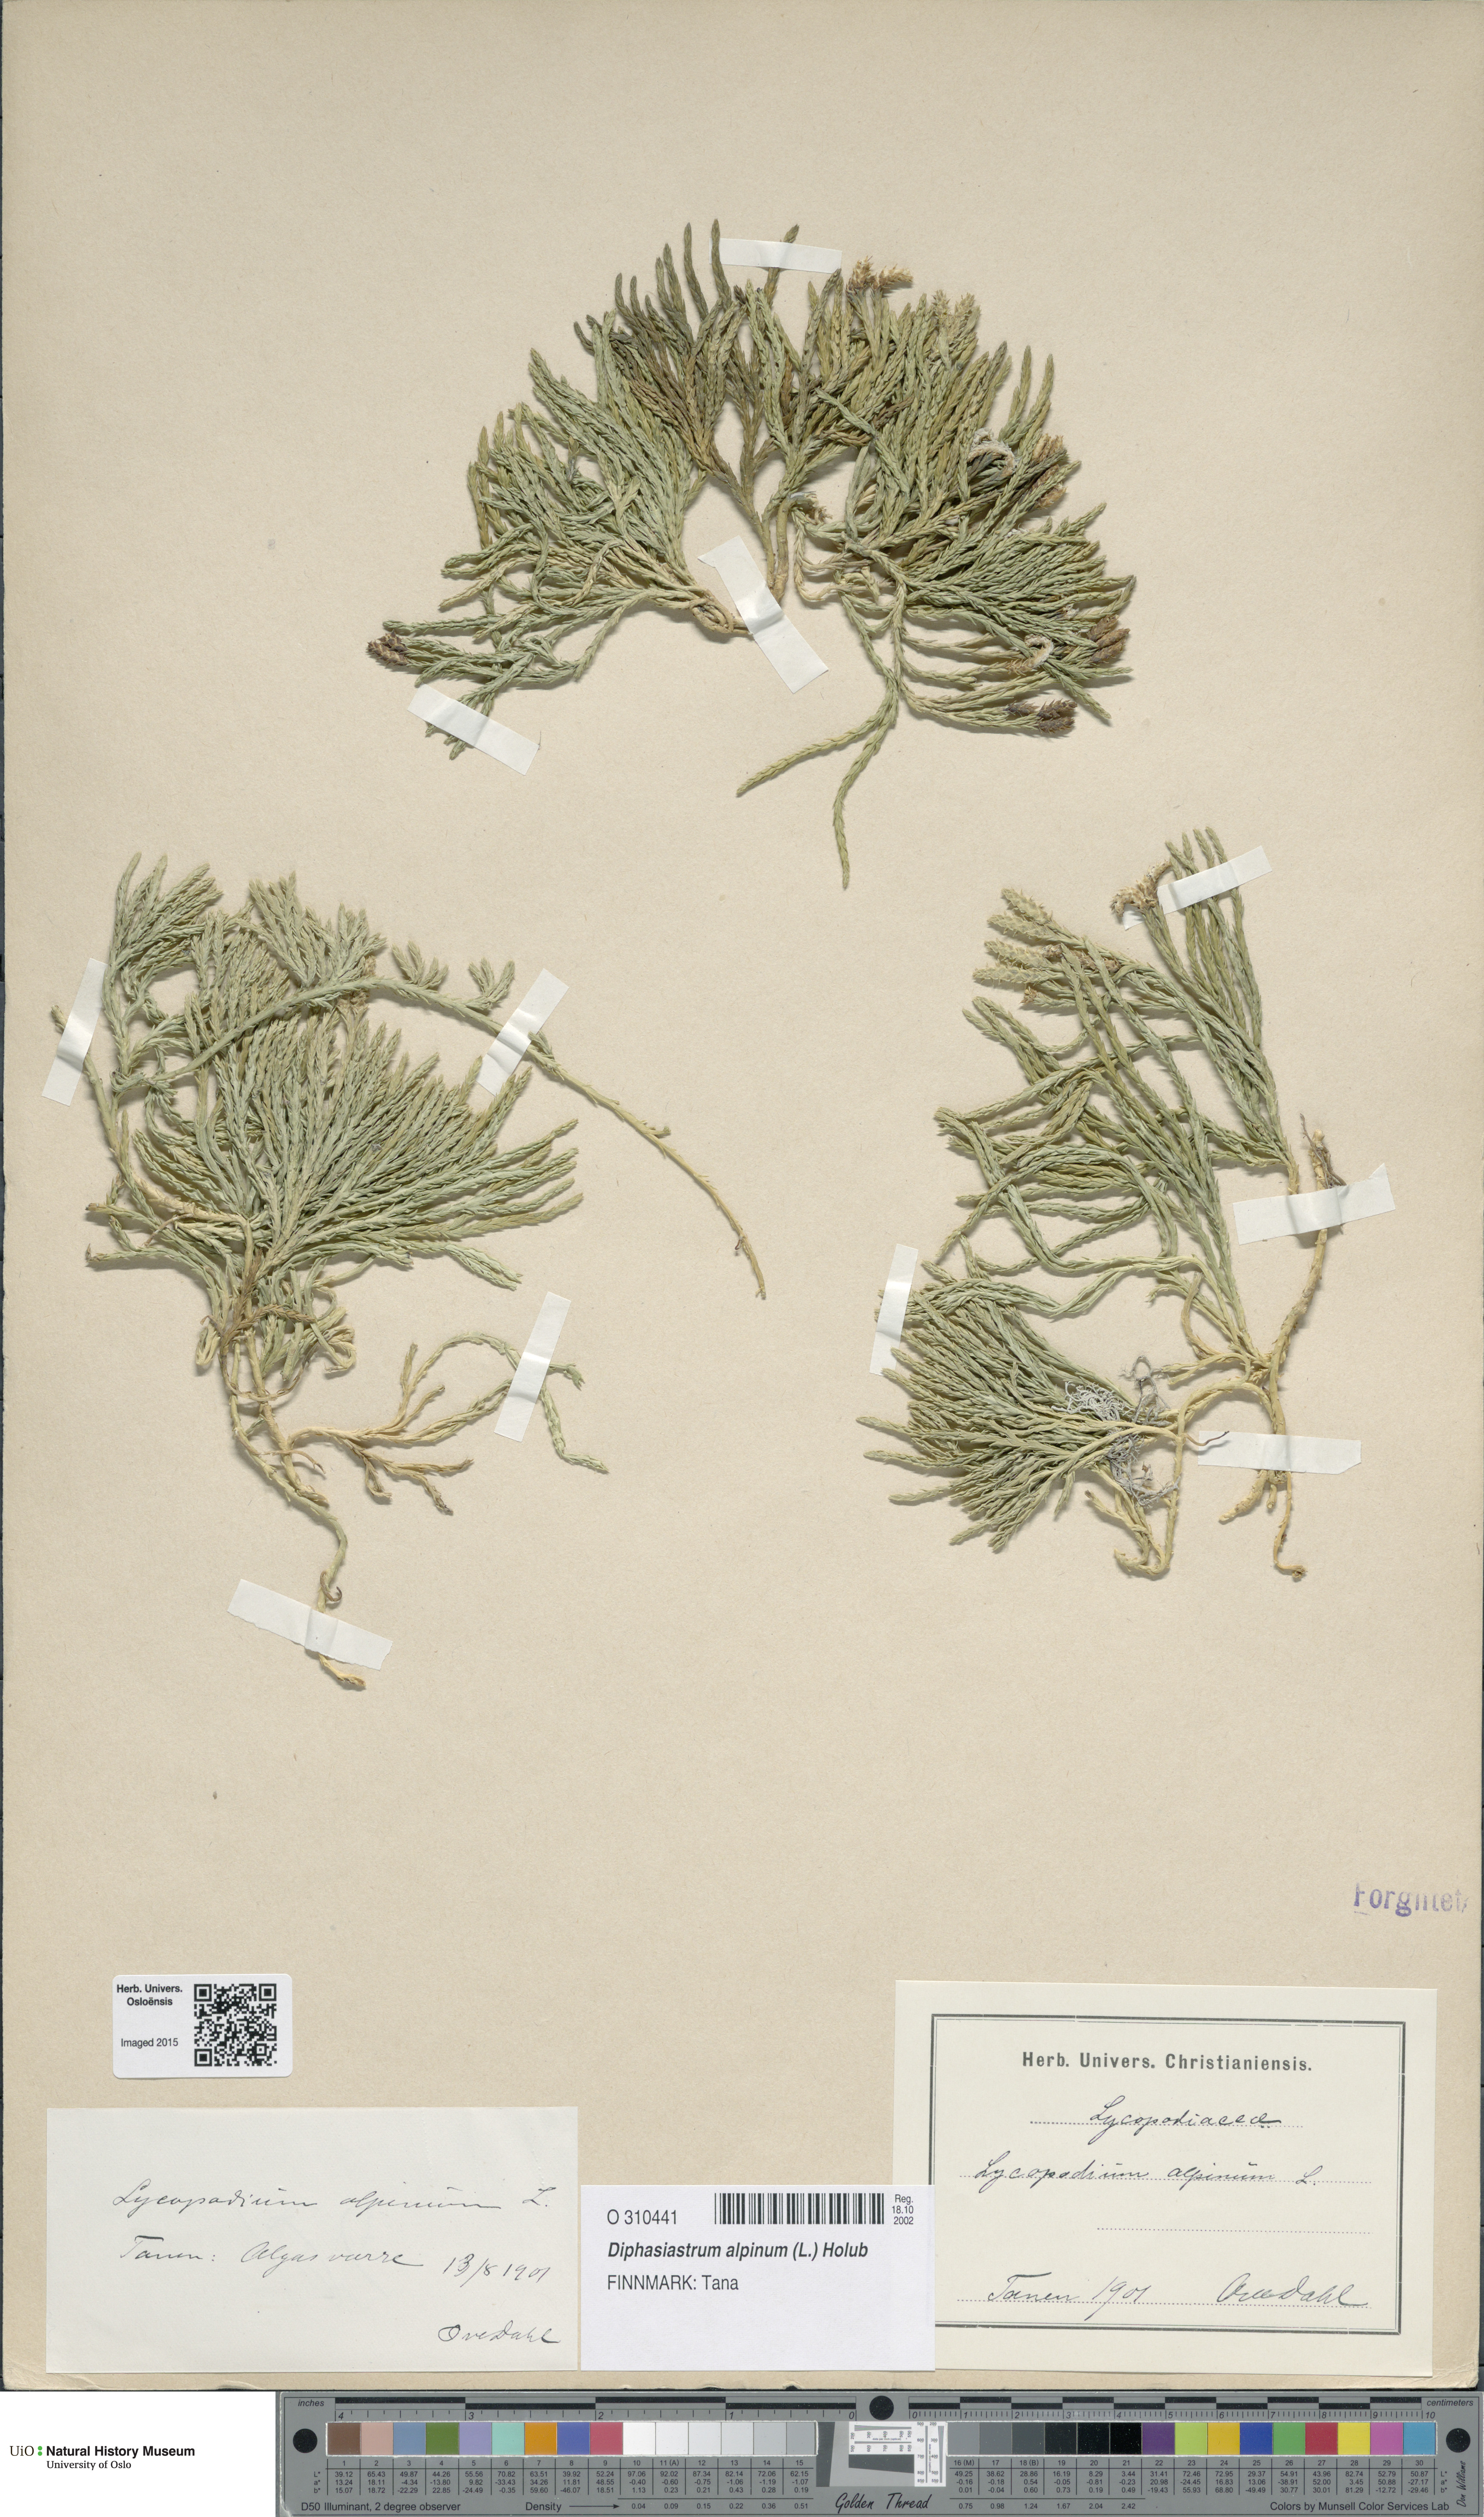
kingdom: Plantae
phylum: Tracheophyta
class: Lycopodiopsida
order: Lycopodiales
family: Lycopodiaceae
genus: Diphasiastrum
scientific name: Diphasiastrum alpinum
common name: Alpine clubmoss
